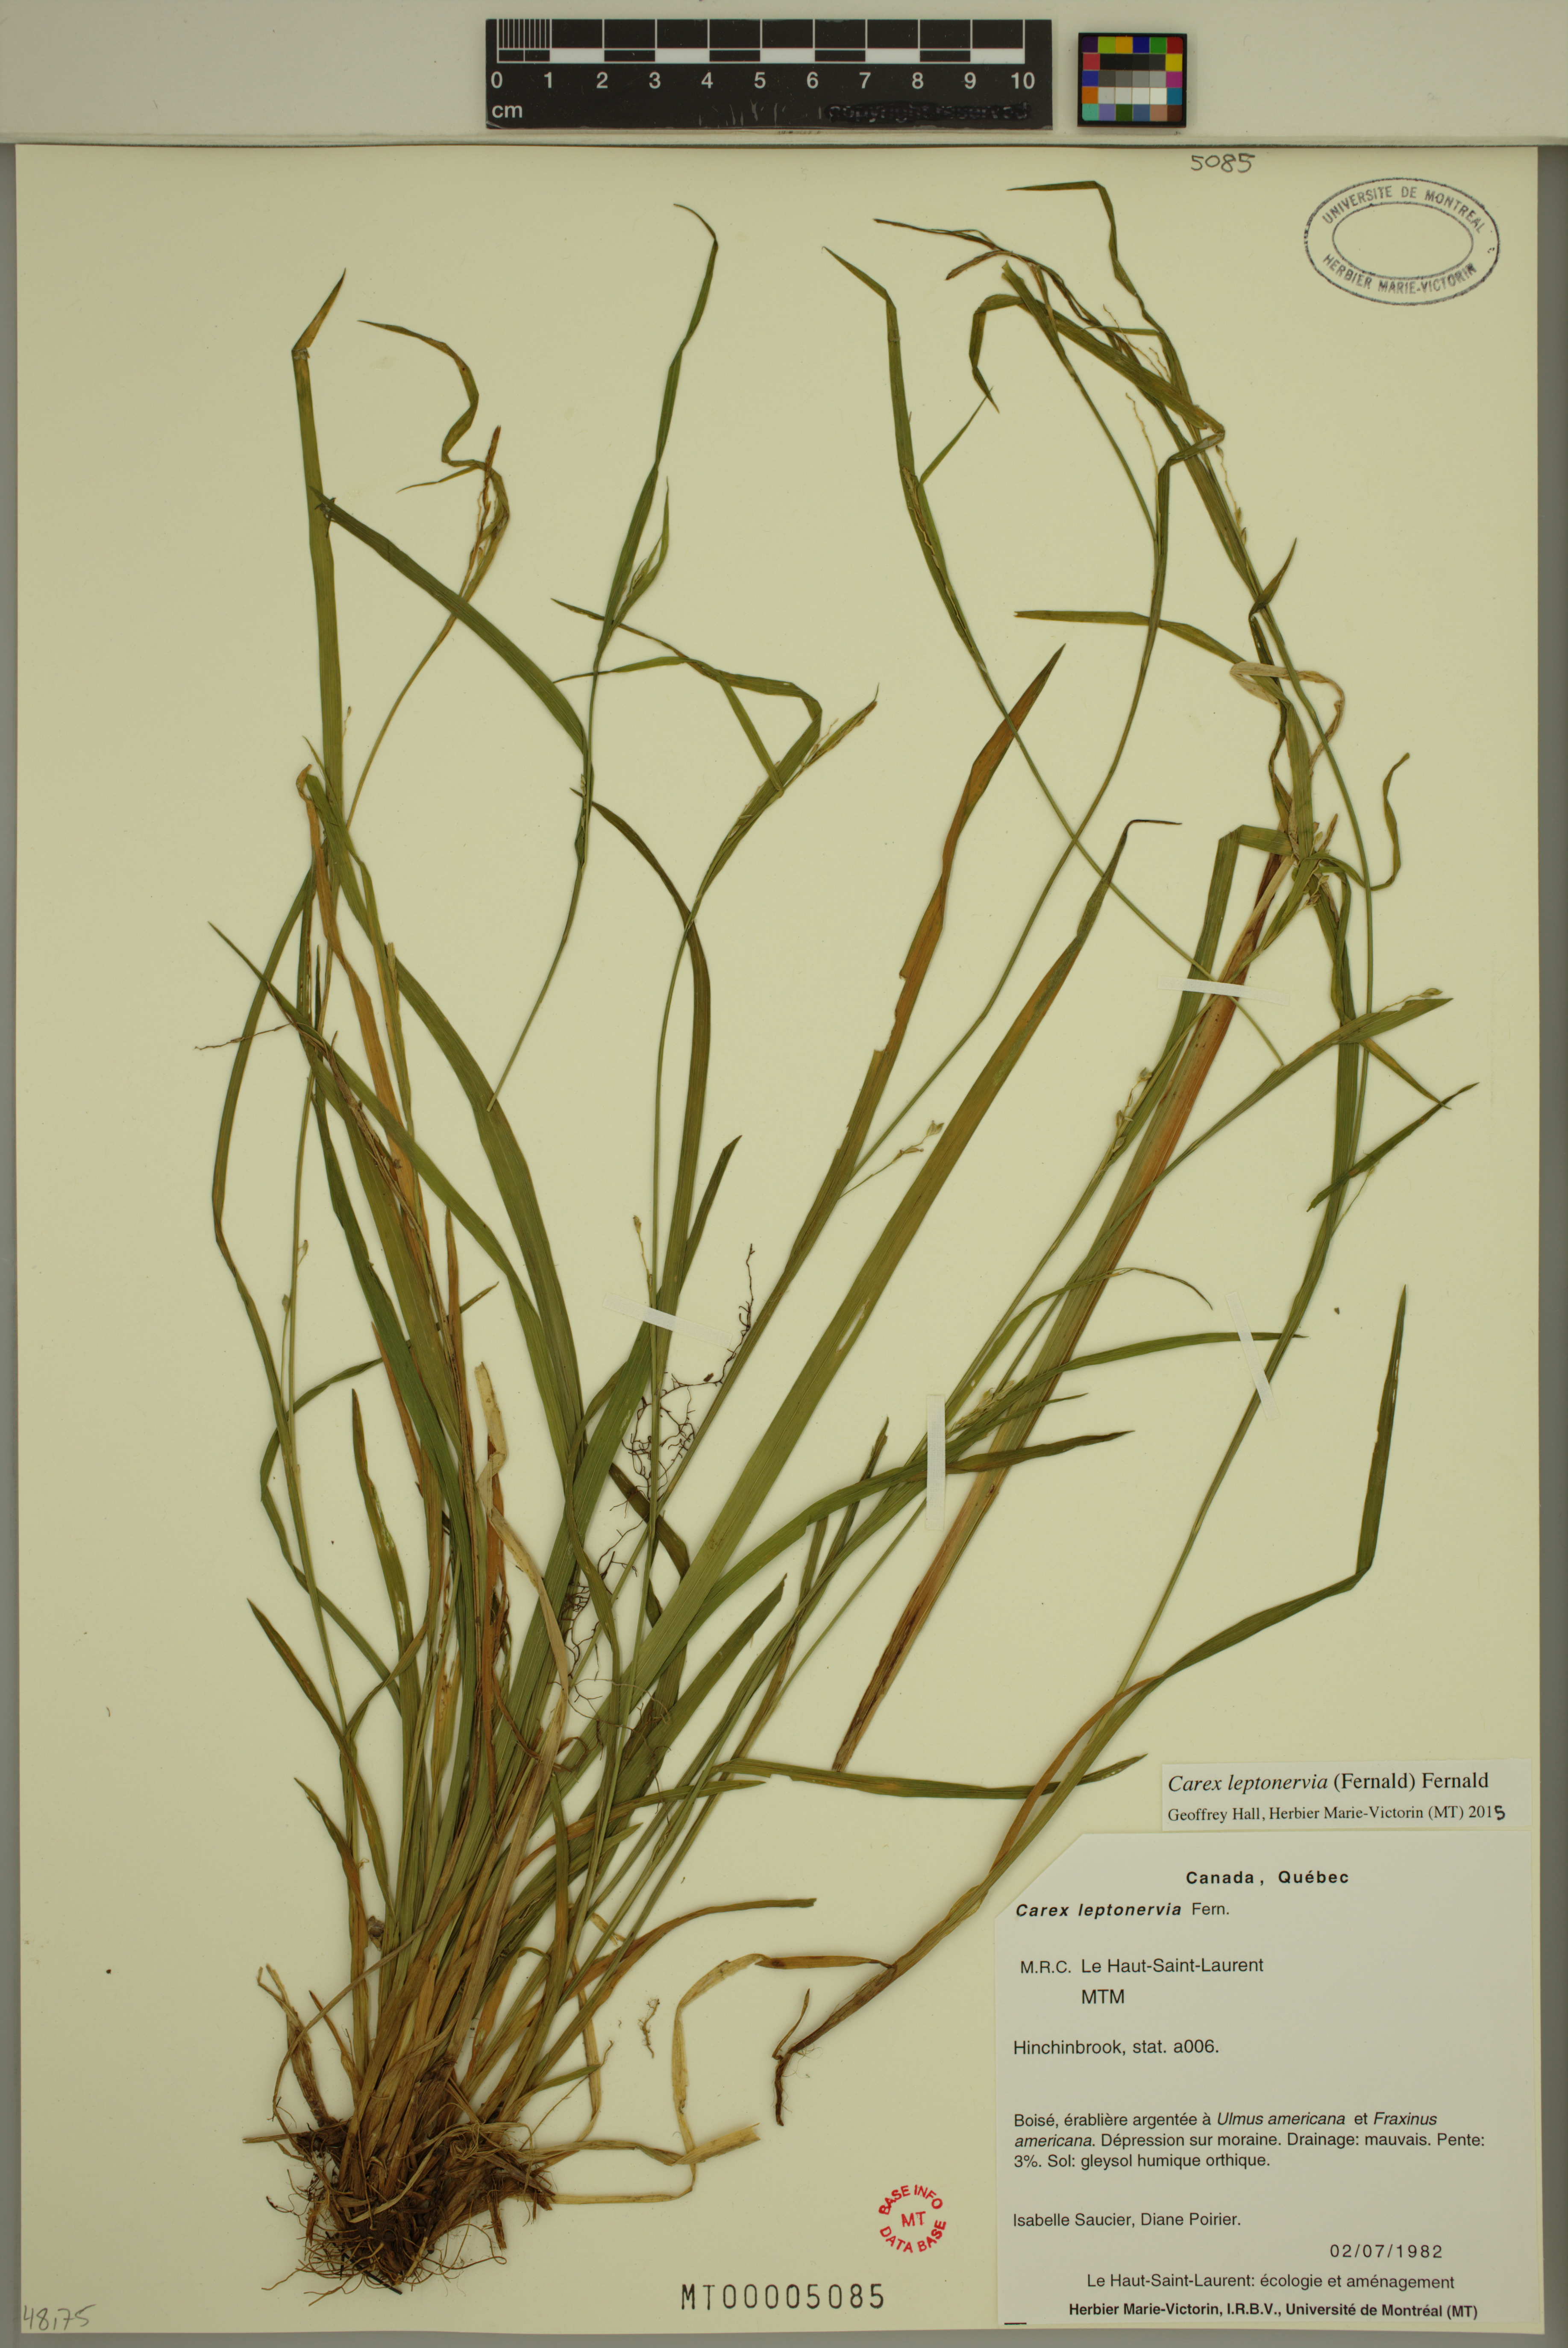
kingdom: Plantae
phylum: Tracheophyta
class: Liliopsida
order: Poales
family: Cyperaceae
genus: Carex
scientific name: Carex leptonervia
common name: Few-nerved wood sedge
